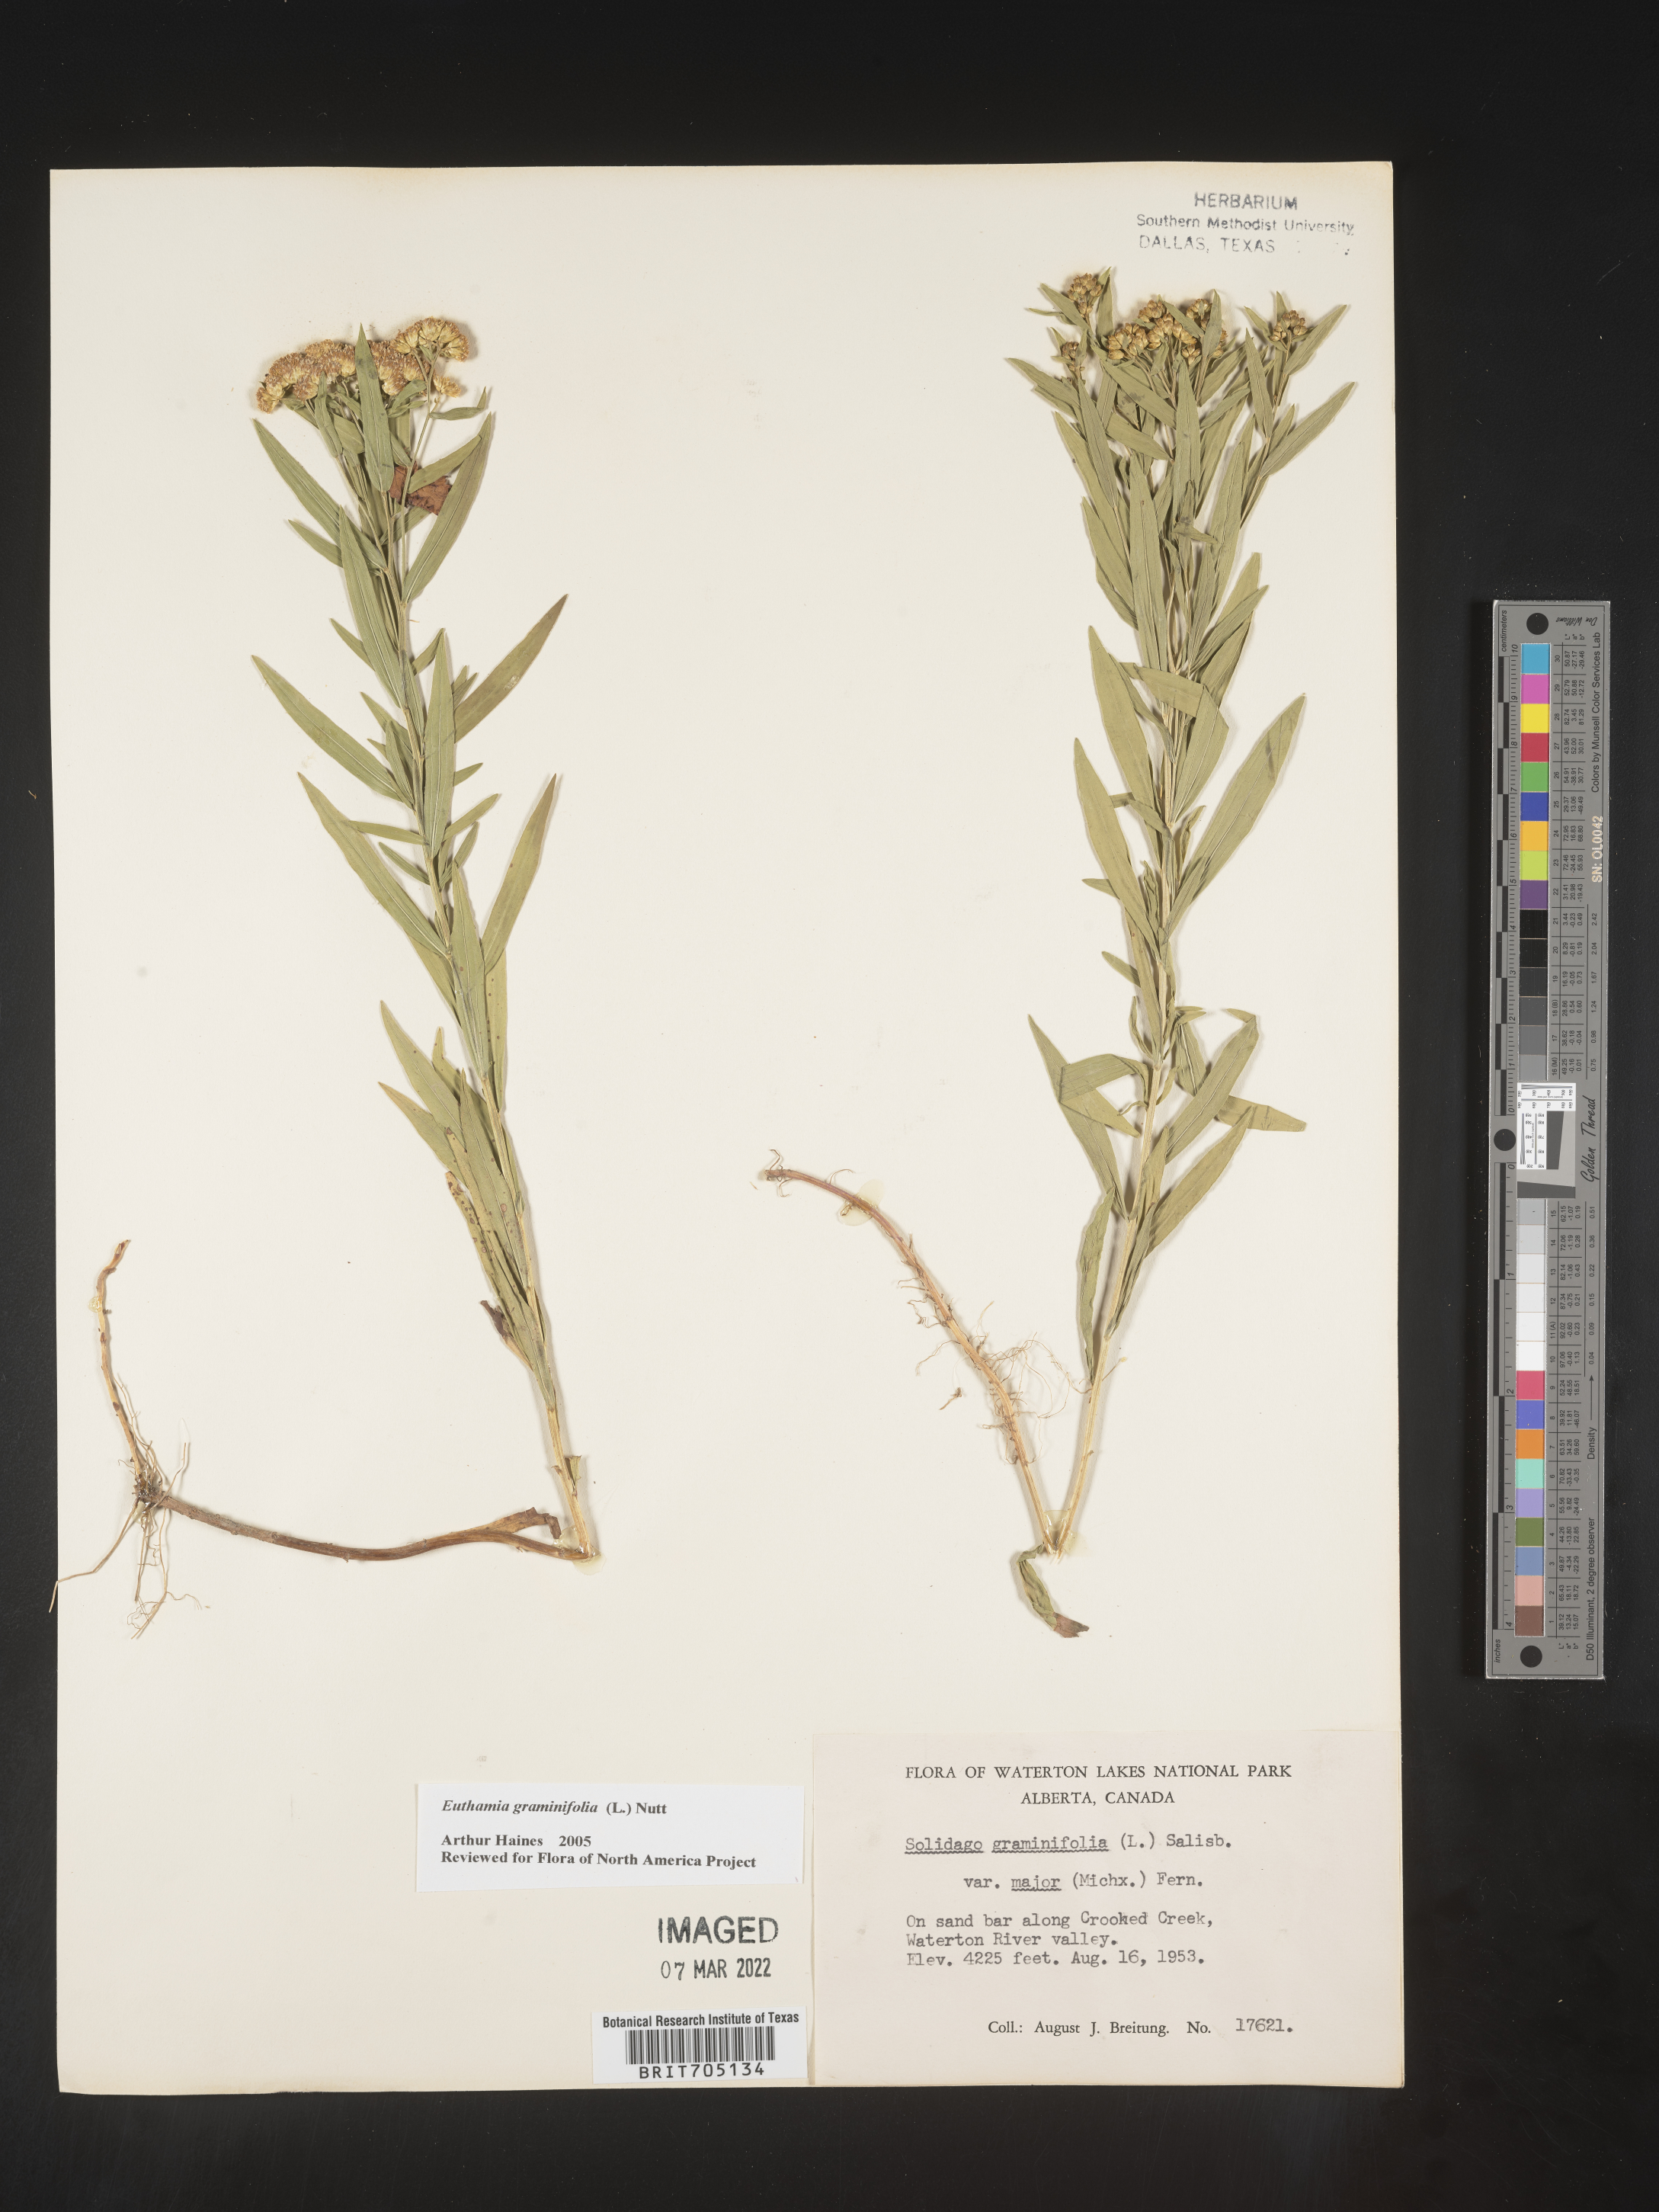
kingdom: Plantae
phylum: Tracheophyta
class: Magnoliopsida
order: Asterales
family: Asteraceae
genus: Euthamia
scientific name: Euthamia graminifolia
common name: Common goldentop
